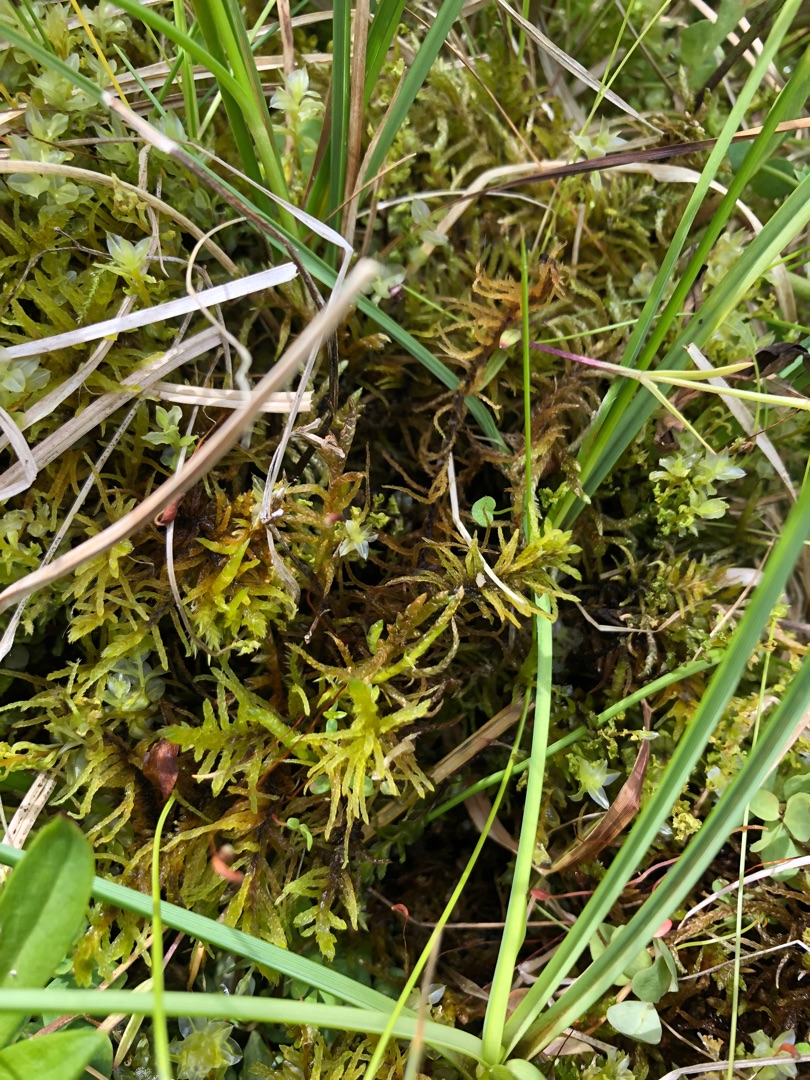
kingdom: Plantae
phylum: Bryophyta
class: Bryopsida
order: Hypnales
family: Helodiaceae
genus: Helodium
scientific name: Helodium blandowii
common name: Kær-gyldenmos
